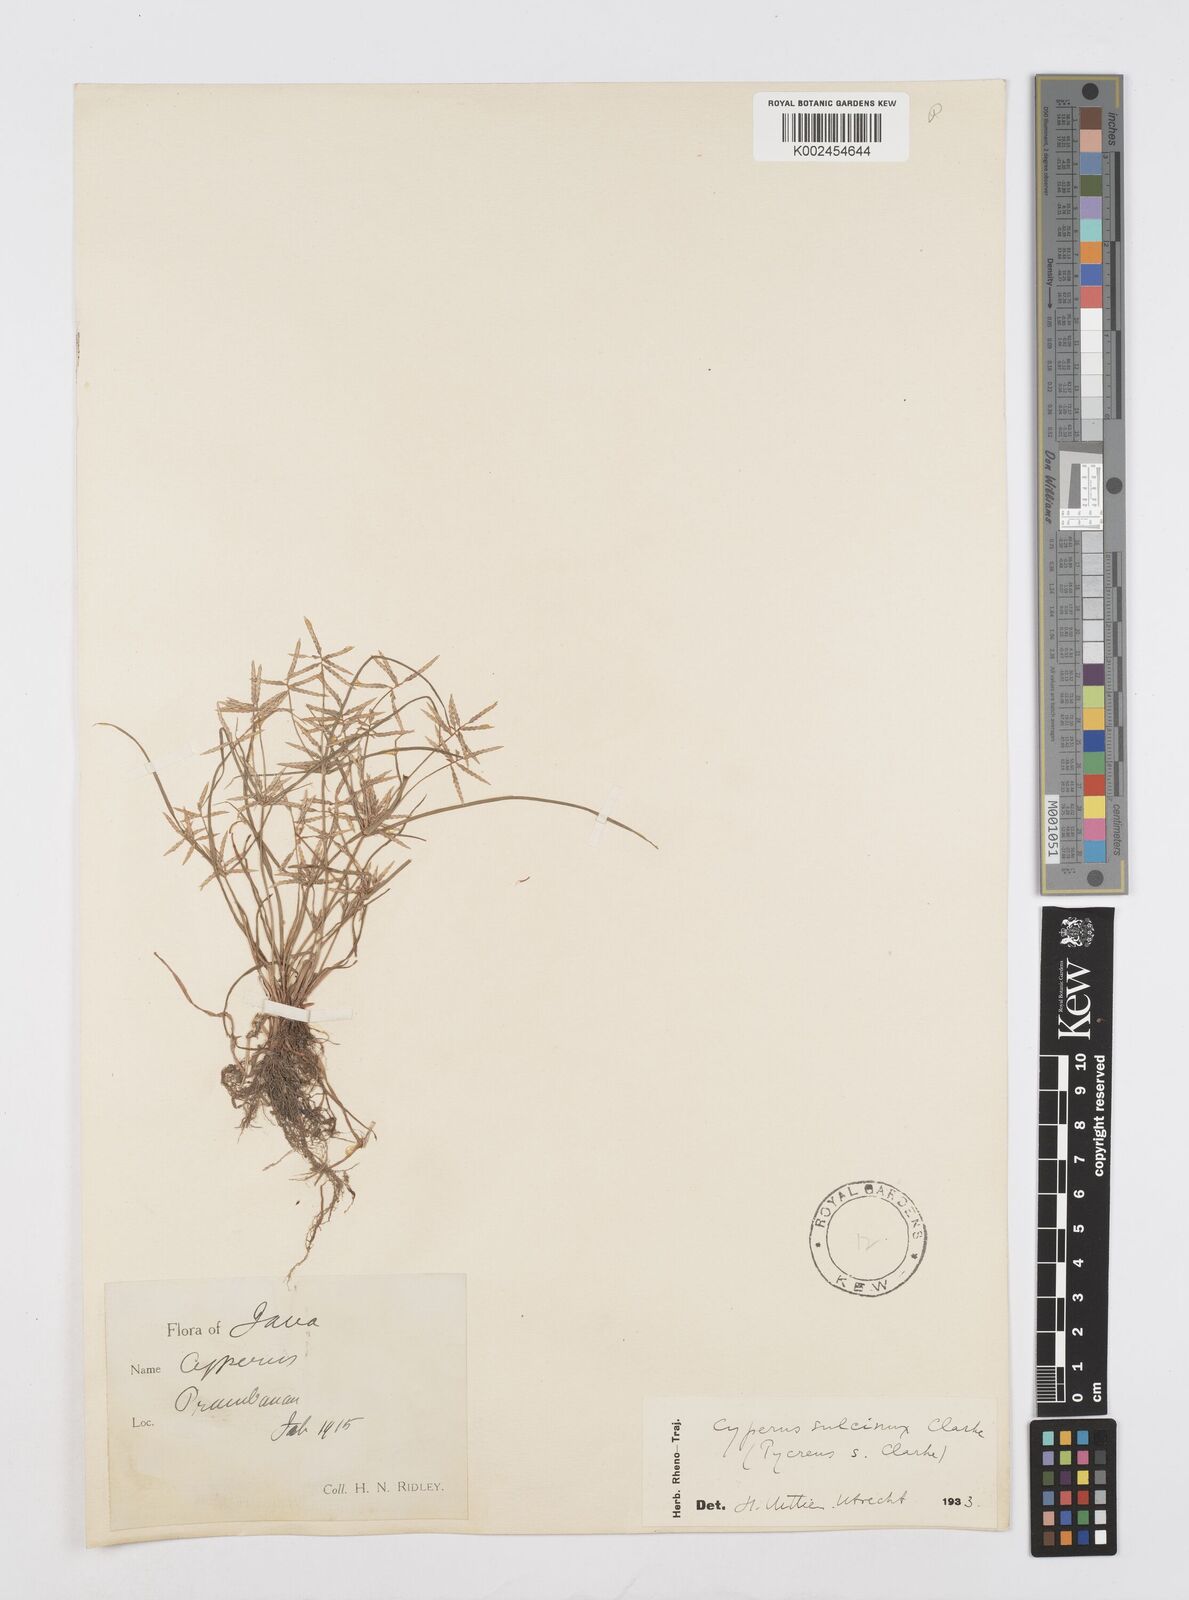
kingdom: Plantae
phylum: Tracheophyta
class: Liliopsida
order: Poales
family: Cyperaceae
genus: Cyperus
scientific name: Cyperus sulcinux
